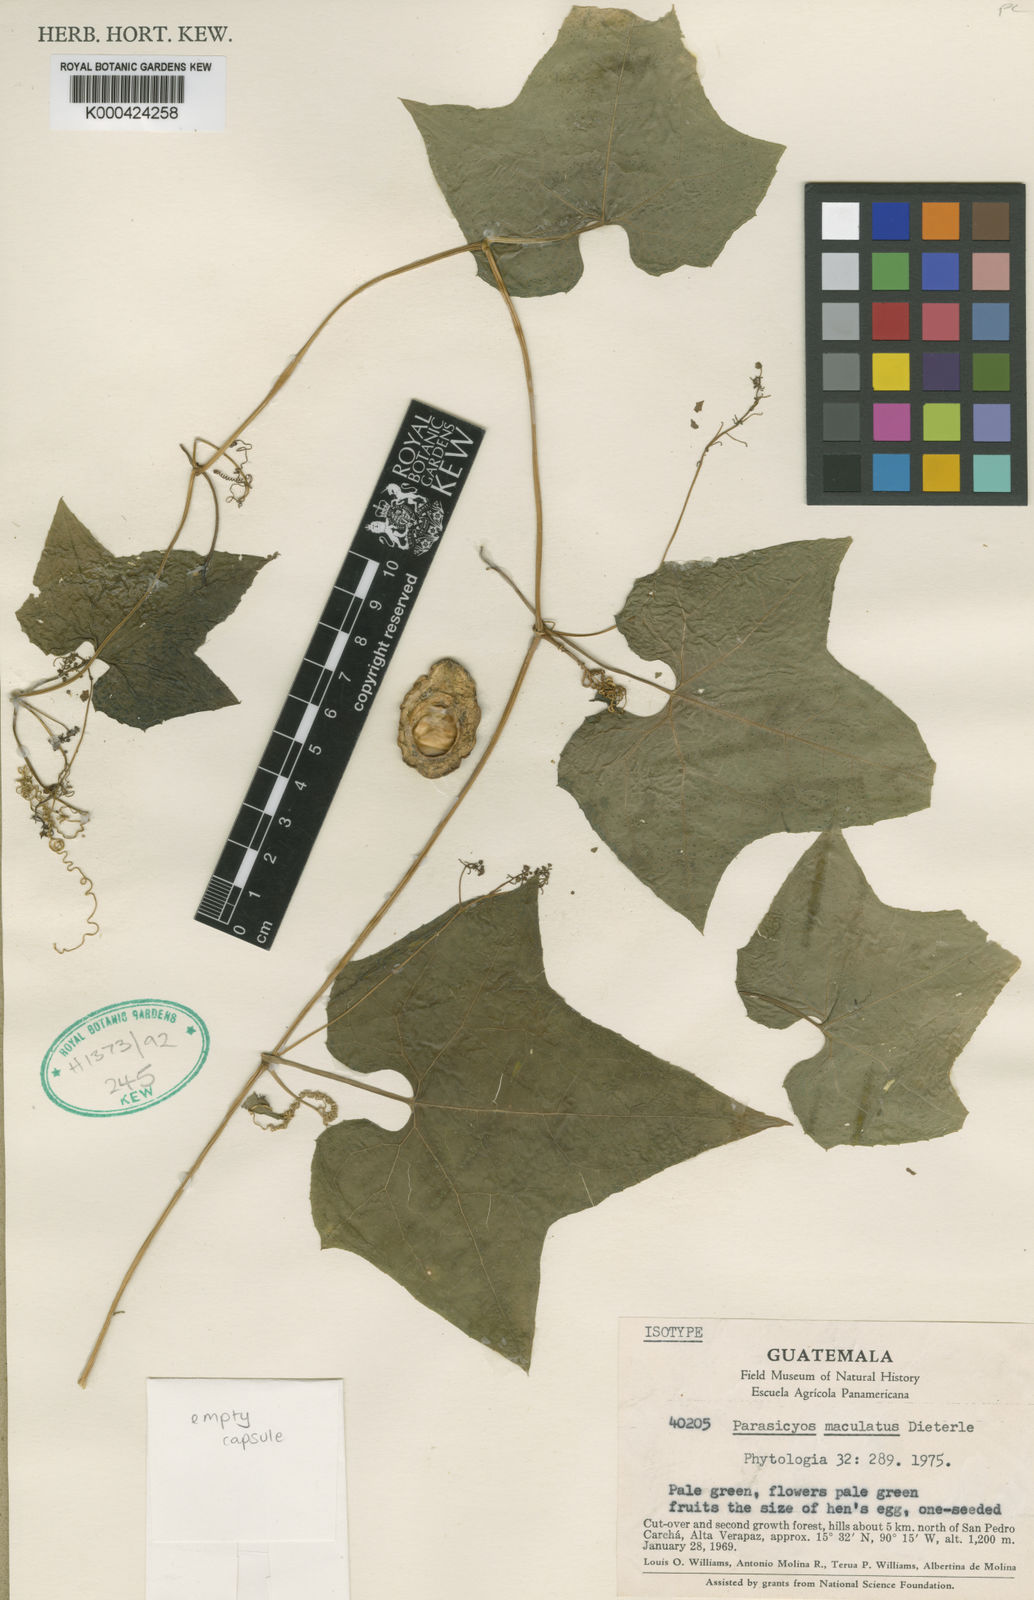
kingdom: Plantae
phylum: Tracheophyta
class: Magnoliopsida
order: Cucurbitales
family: Cucurbitaceae
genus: Parasicyos
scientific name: Parasicyos maculatus
